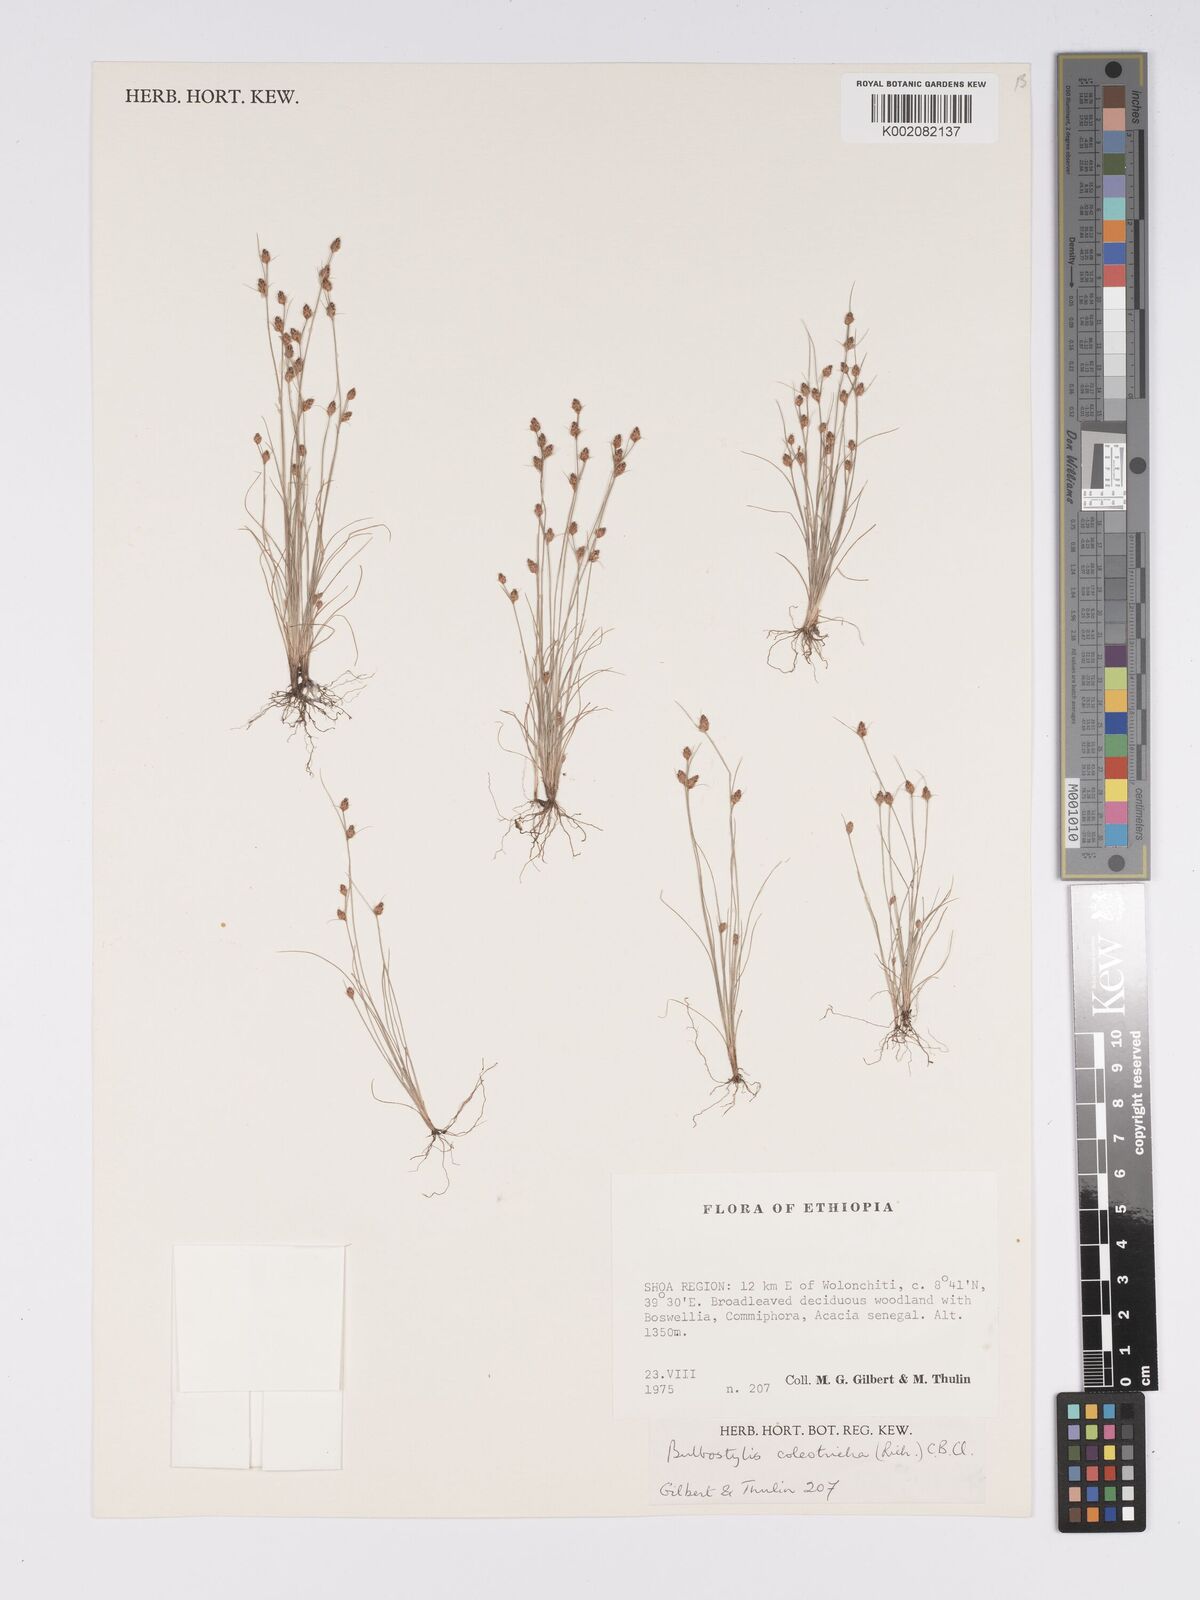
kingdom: Plantae
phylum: Tracheophyta
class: Liliopsida
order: Poales
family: Cyperaceae
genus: Bulbostylis
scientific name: Bulbostylis coleotricha
